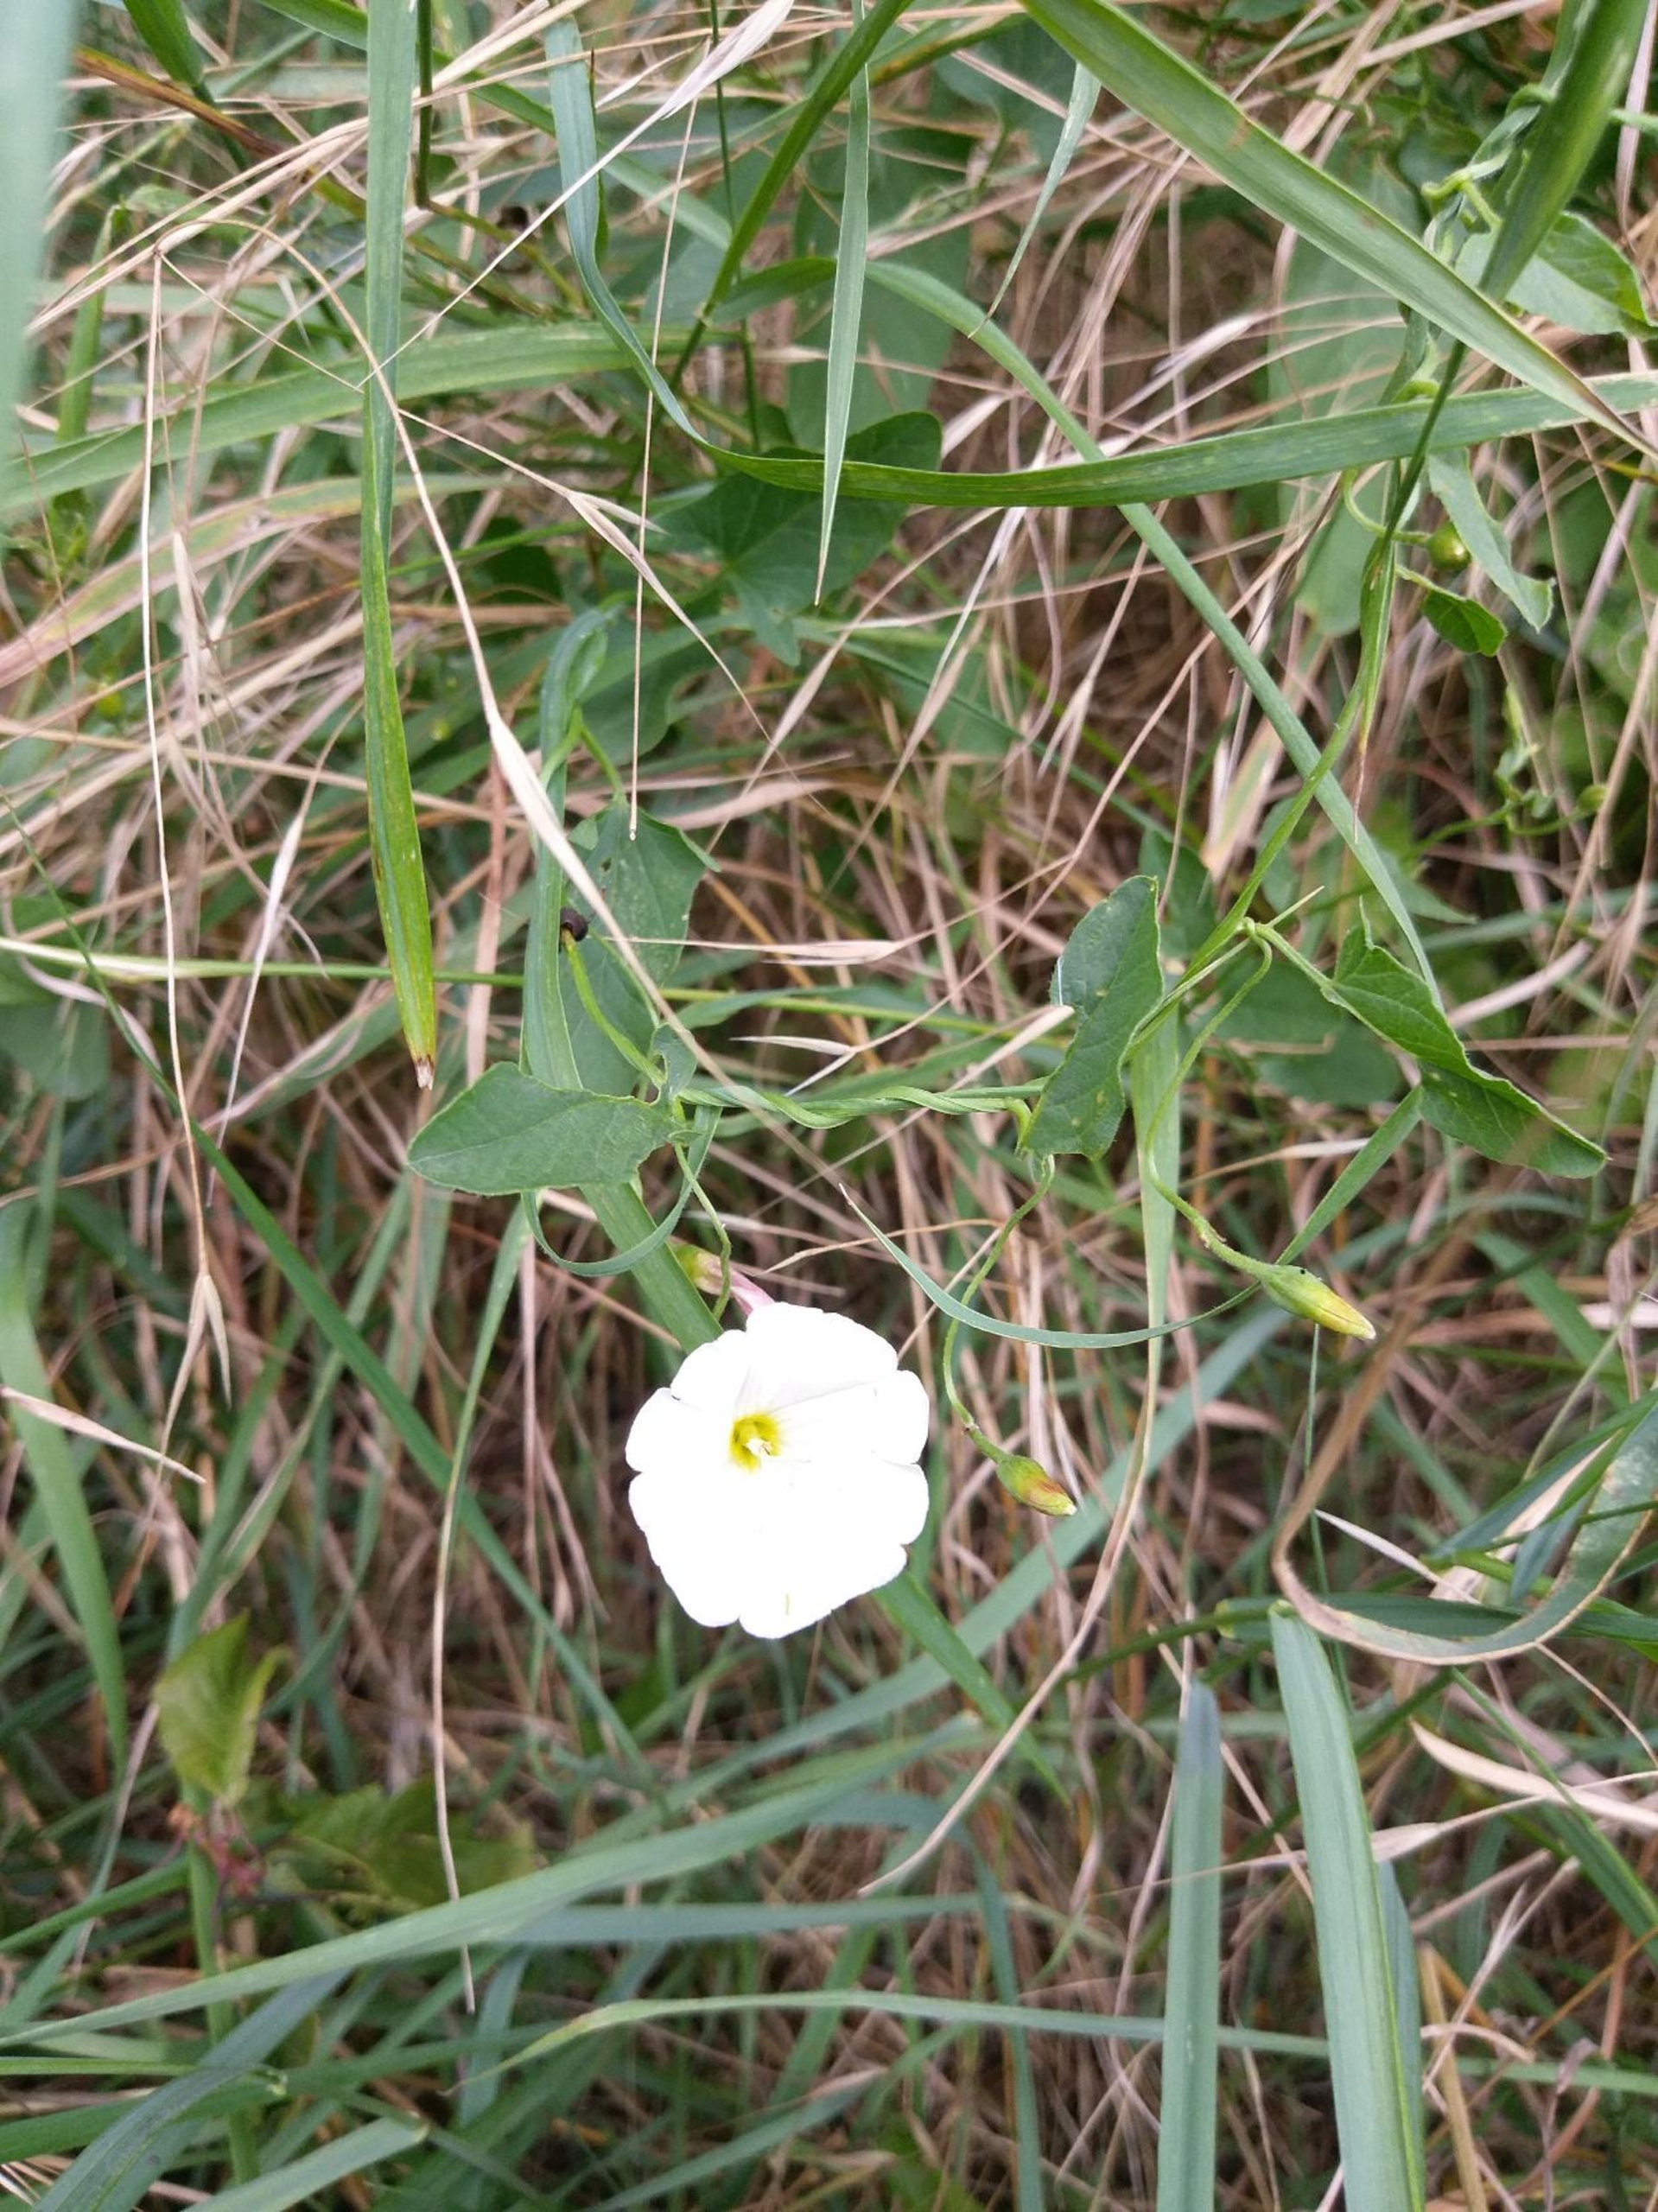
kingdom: Plantae
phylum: Tracheophyta
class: Magnoliopsida
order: Solanales
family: Convolvulaceae
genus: Convolvulus
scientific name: Convolvulus arvensis
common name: Ager-snerle
